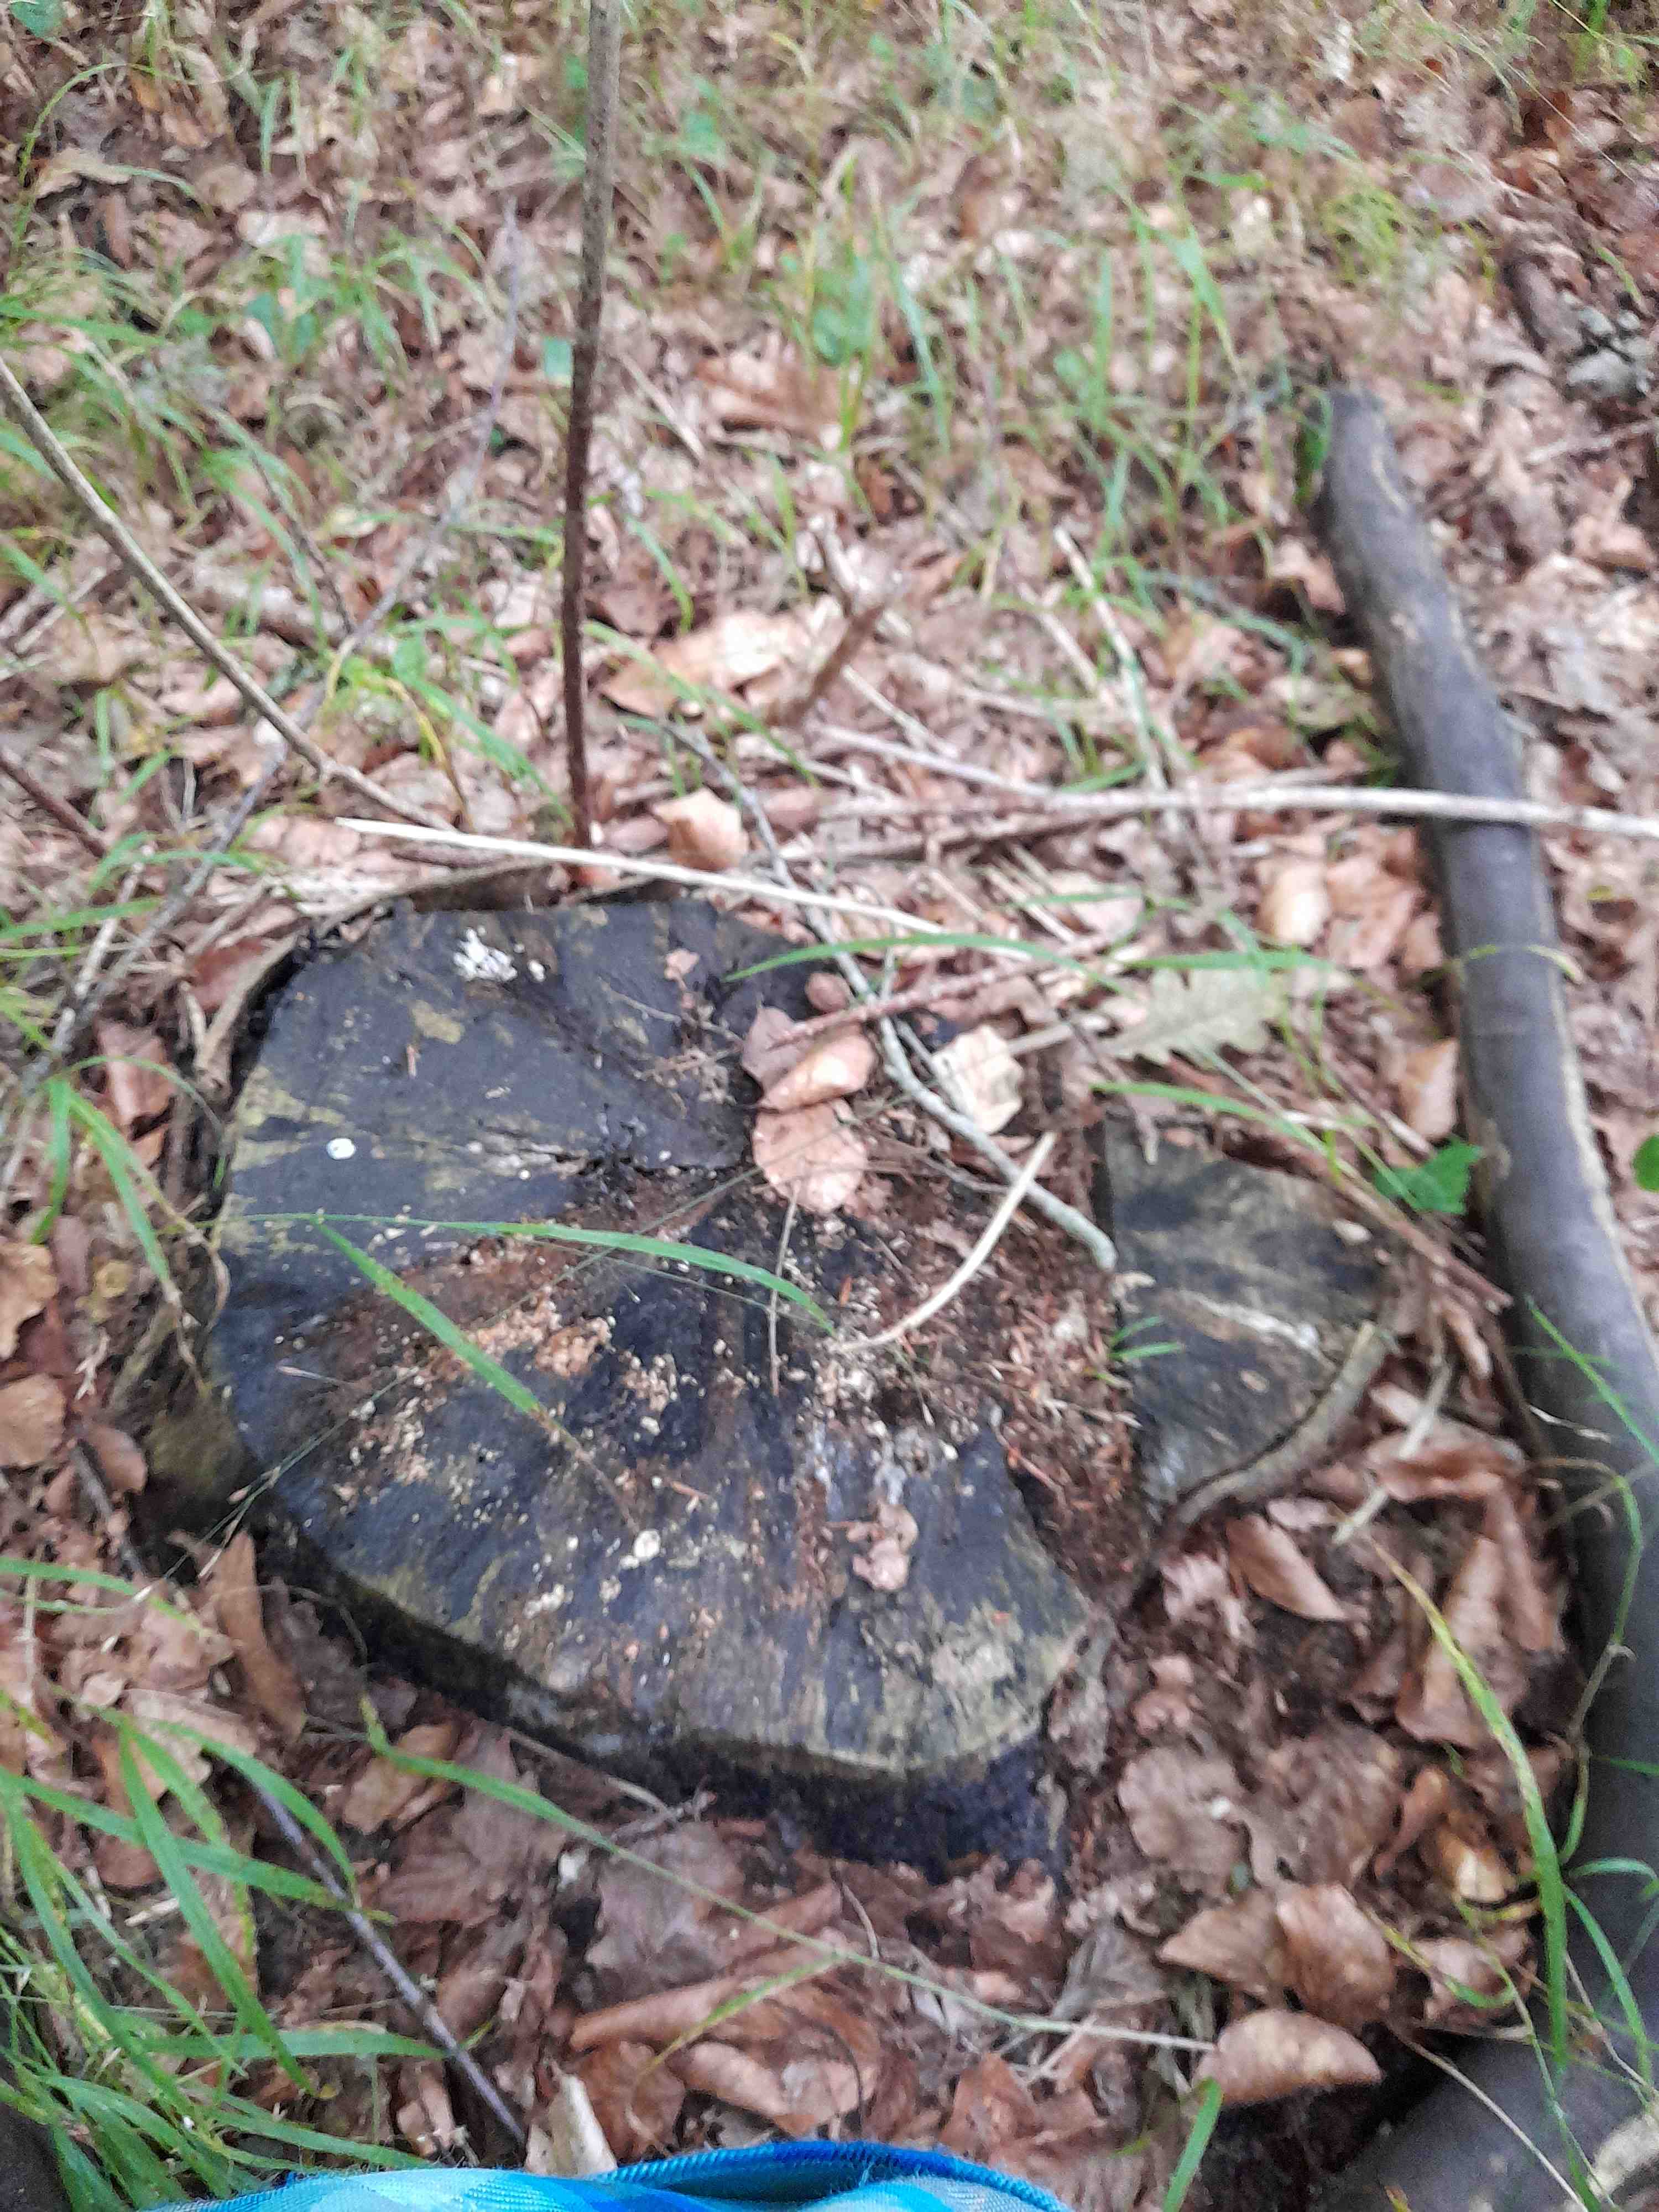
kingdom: Fungi
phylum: Basidiomycota
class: Agaricomycetes
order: Polyporales
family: Polyporaceae
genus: Polyporus
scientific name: Polyporus tuberaster
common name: knoldet stilkporesvamp
